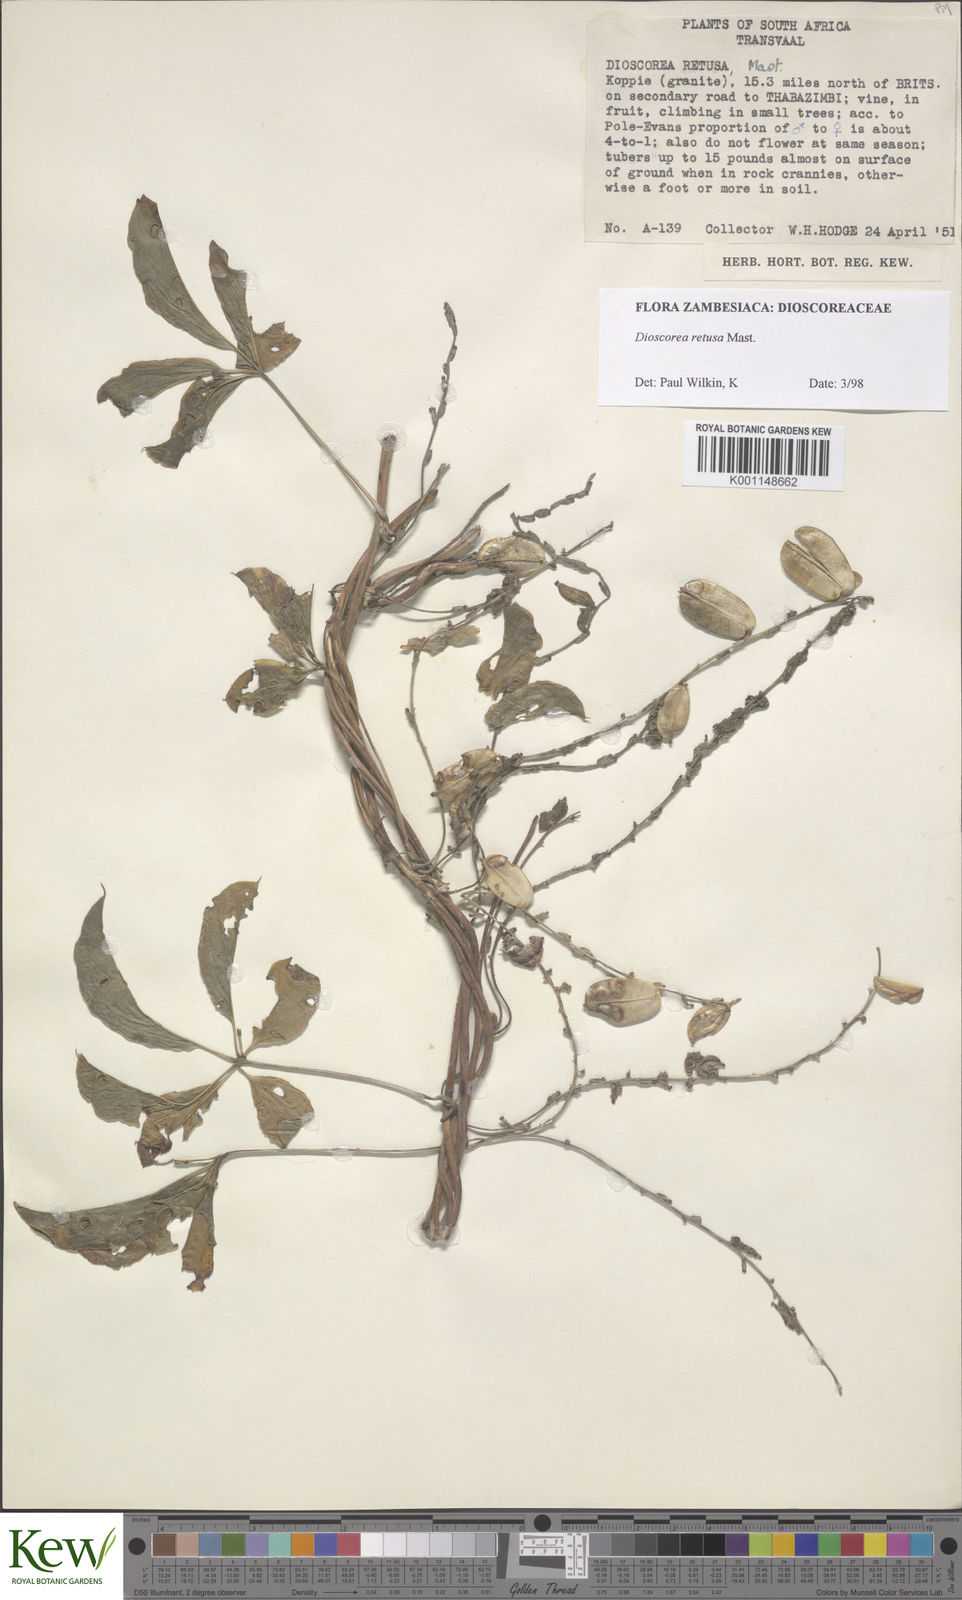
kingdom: Plantae
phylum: Tracheophyta
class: Liliopsida
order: Dioscoreales
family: Dioscoreaceae
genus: Dioscorea
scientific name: Dioscorea retusa
